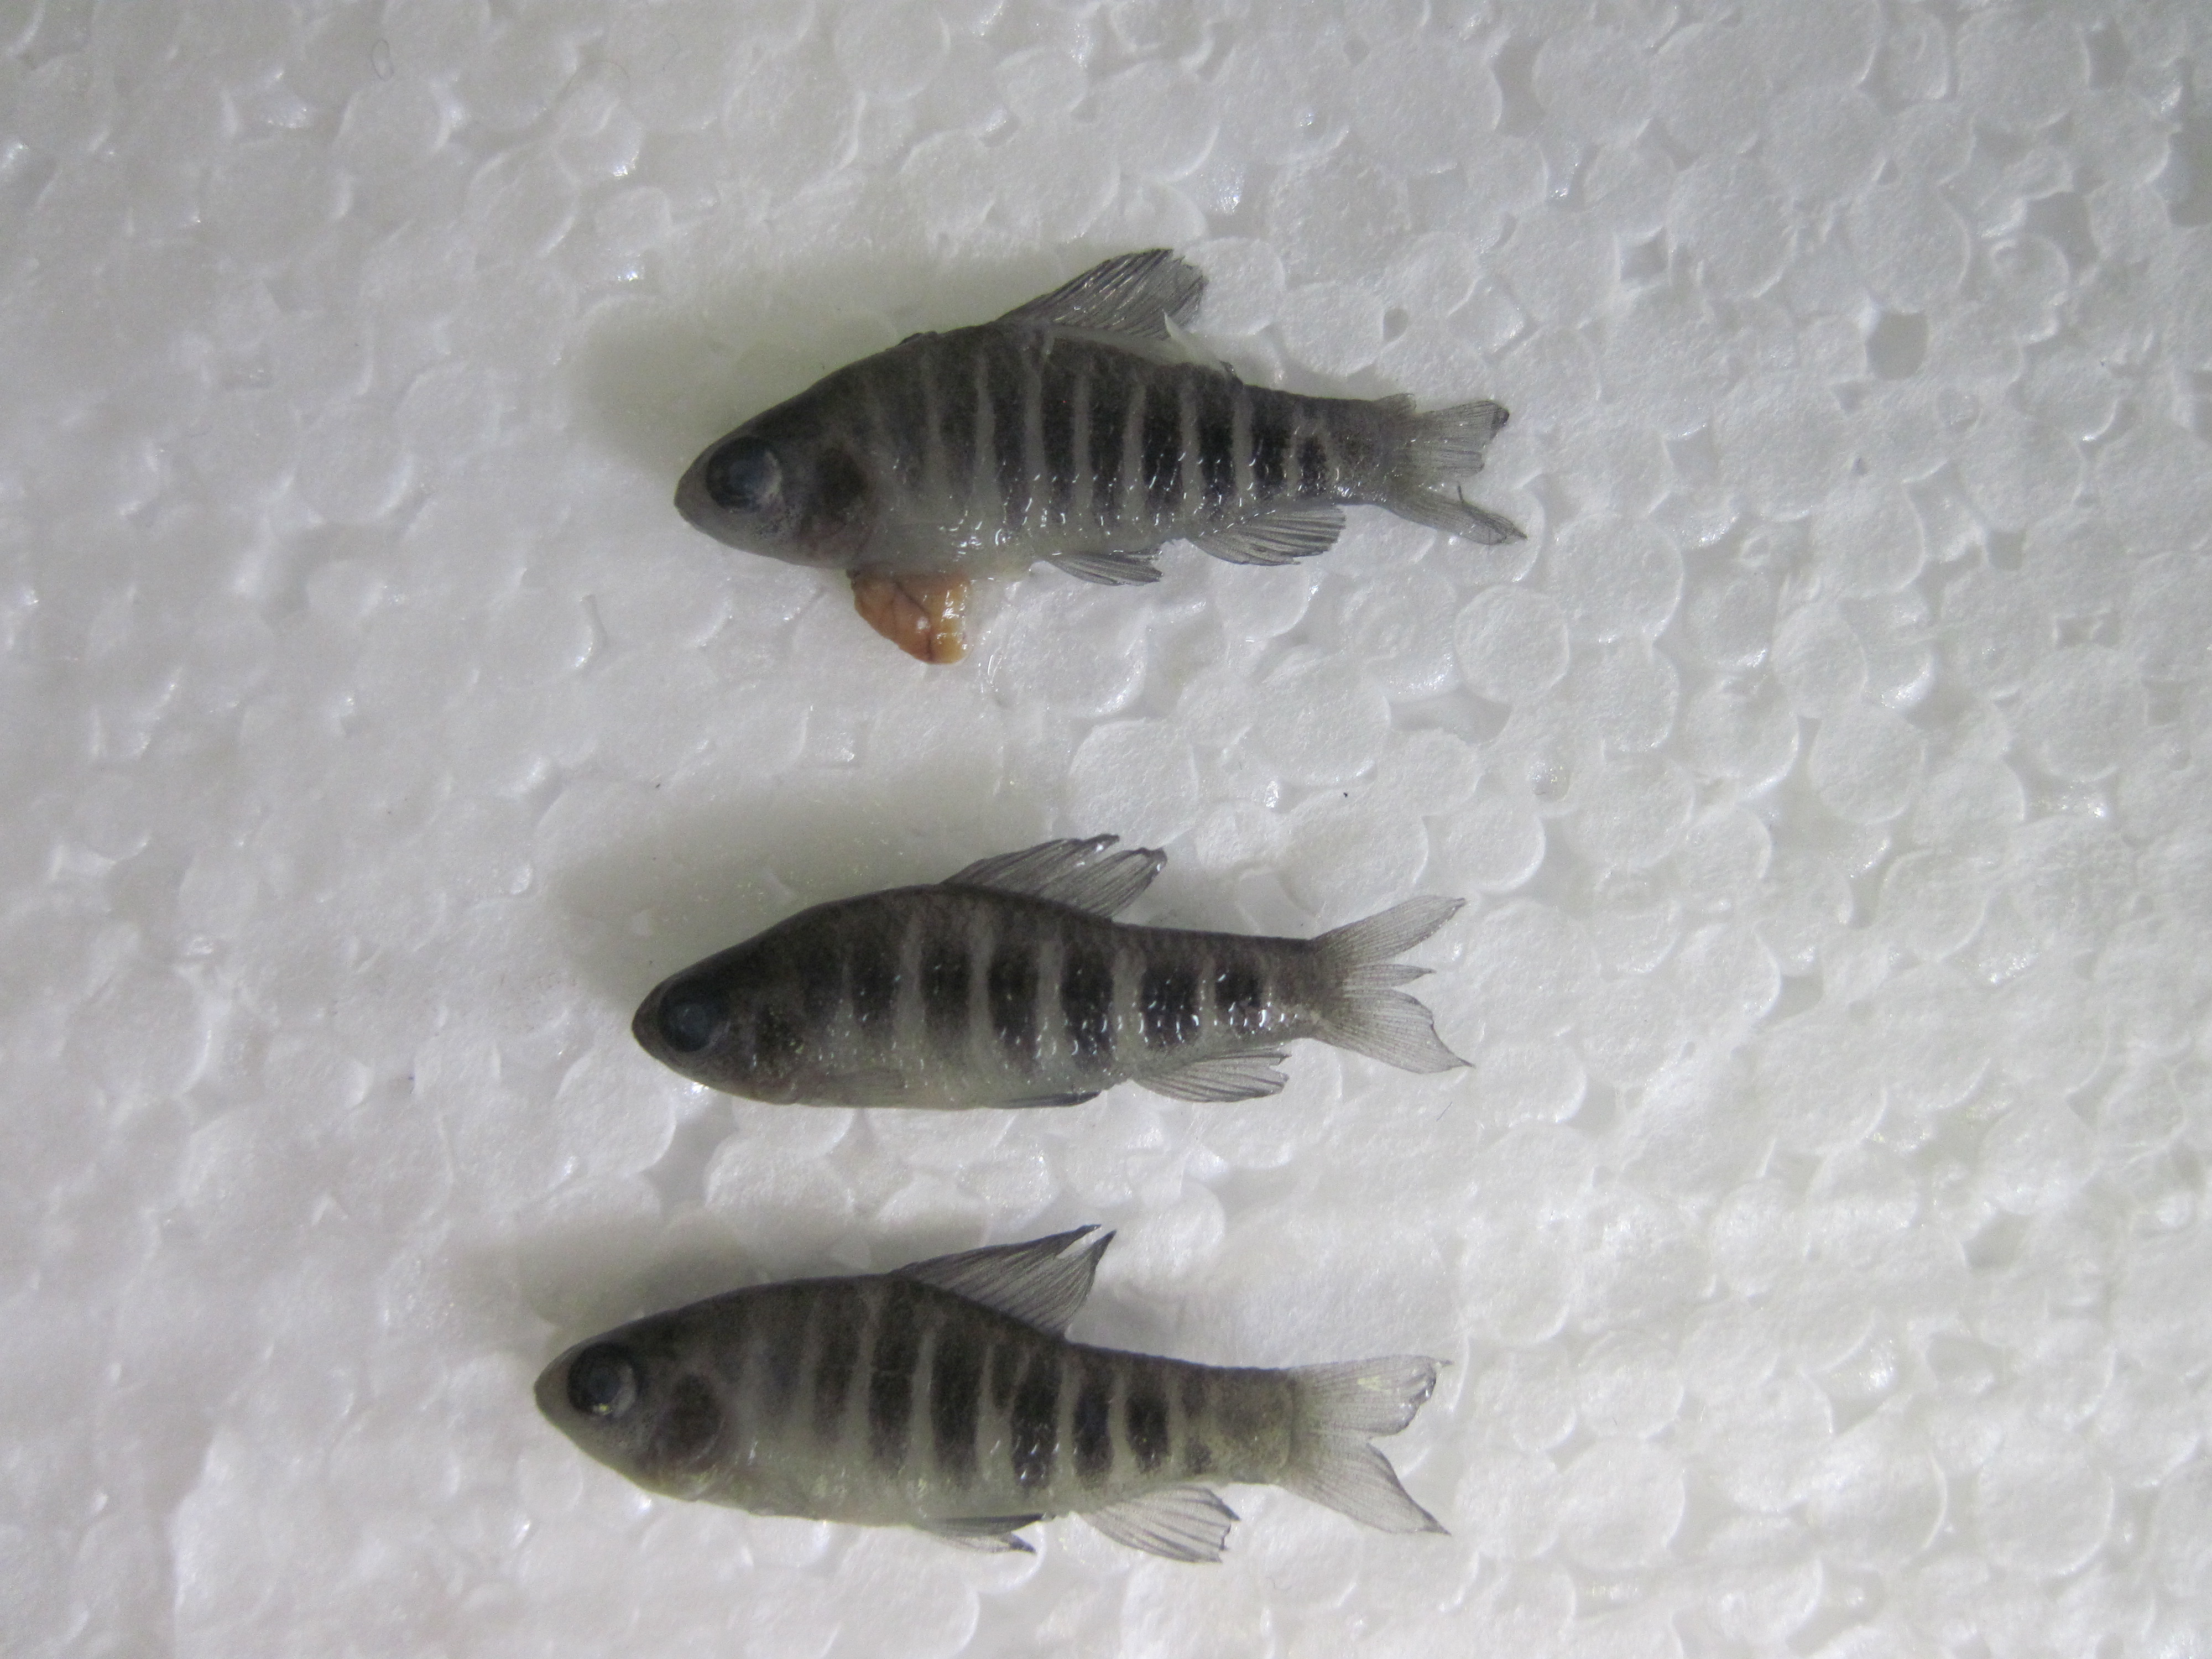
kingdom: Animalia
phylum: Chordata
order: Characiformes
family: Distichodontidae
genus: Neolebias
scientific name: Neolebias lozii
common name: Banded neolebias
